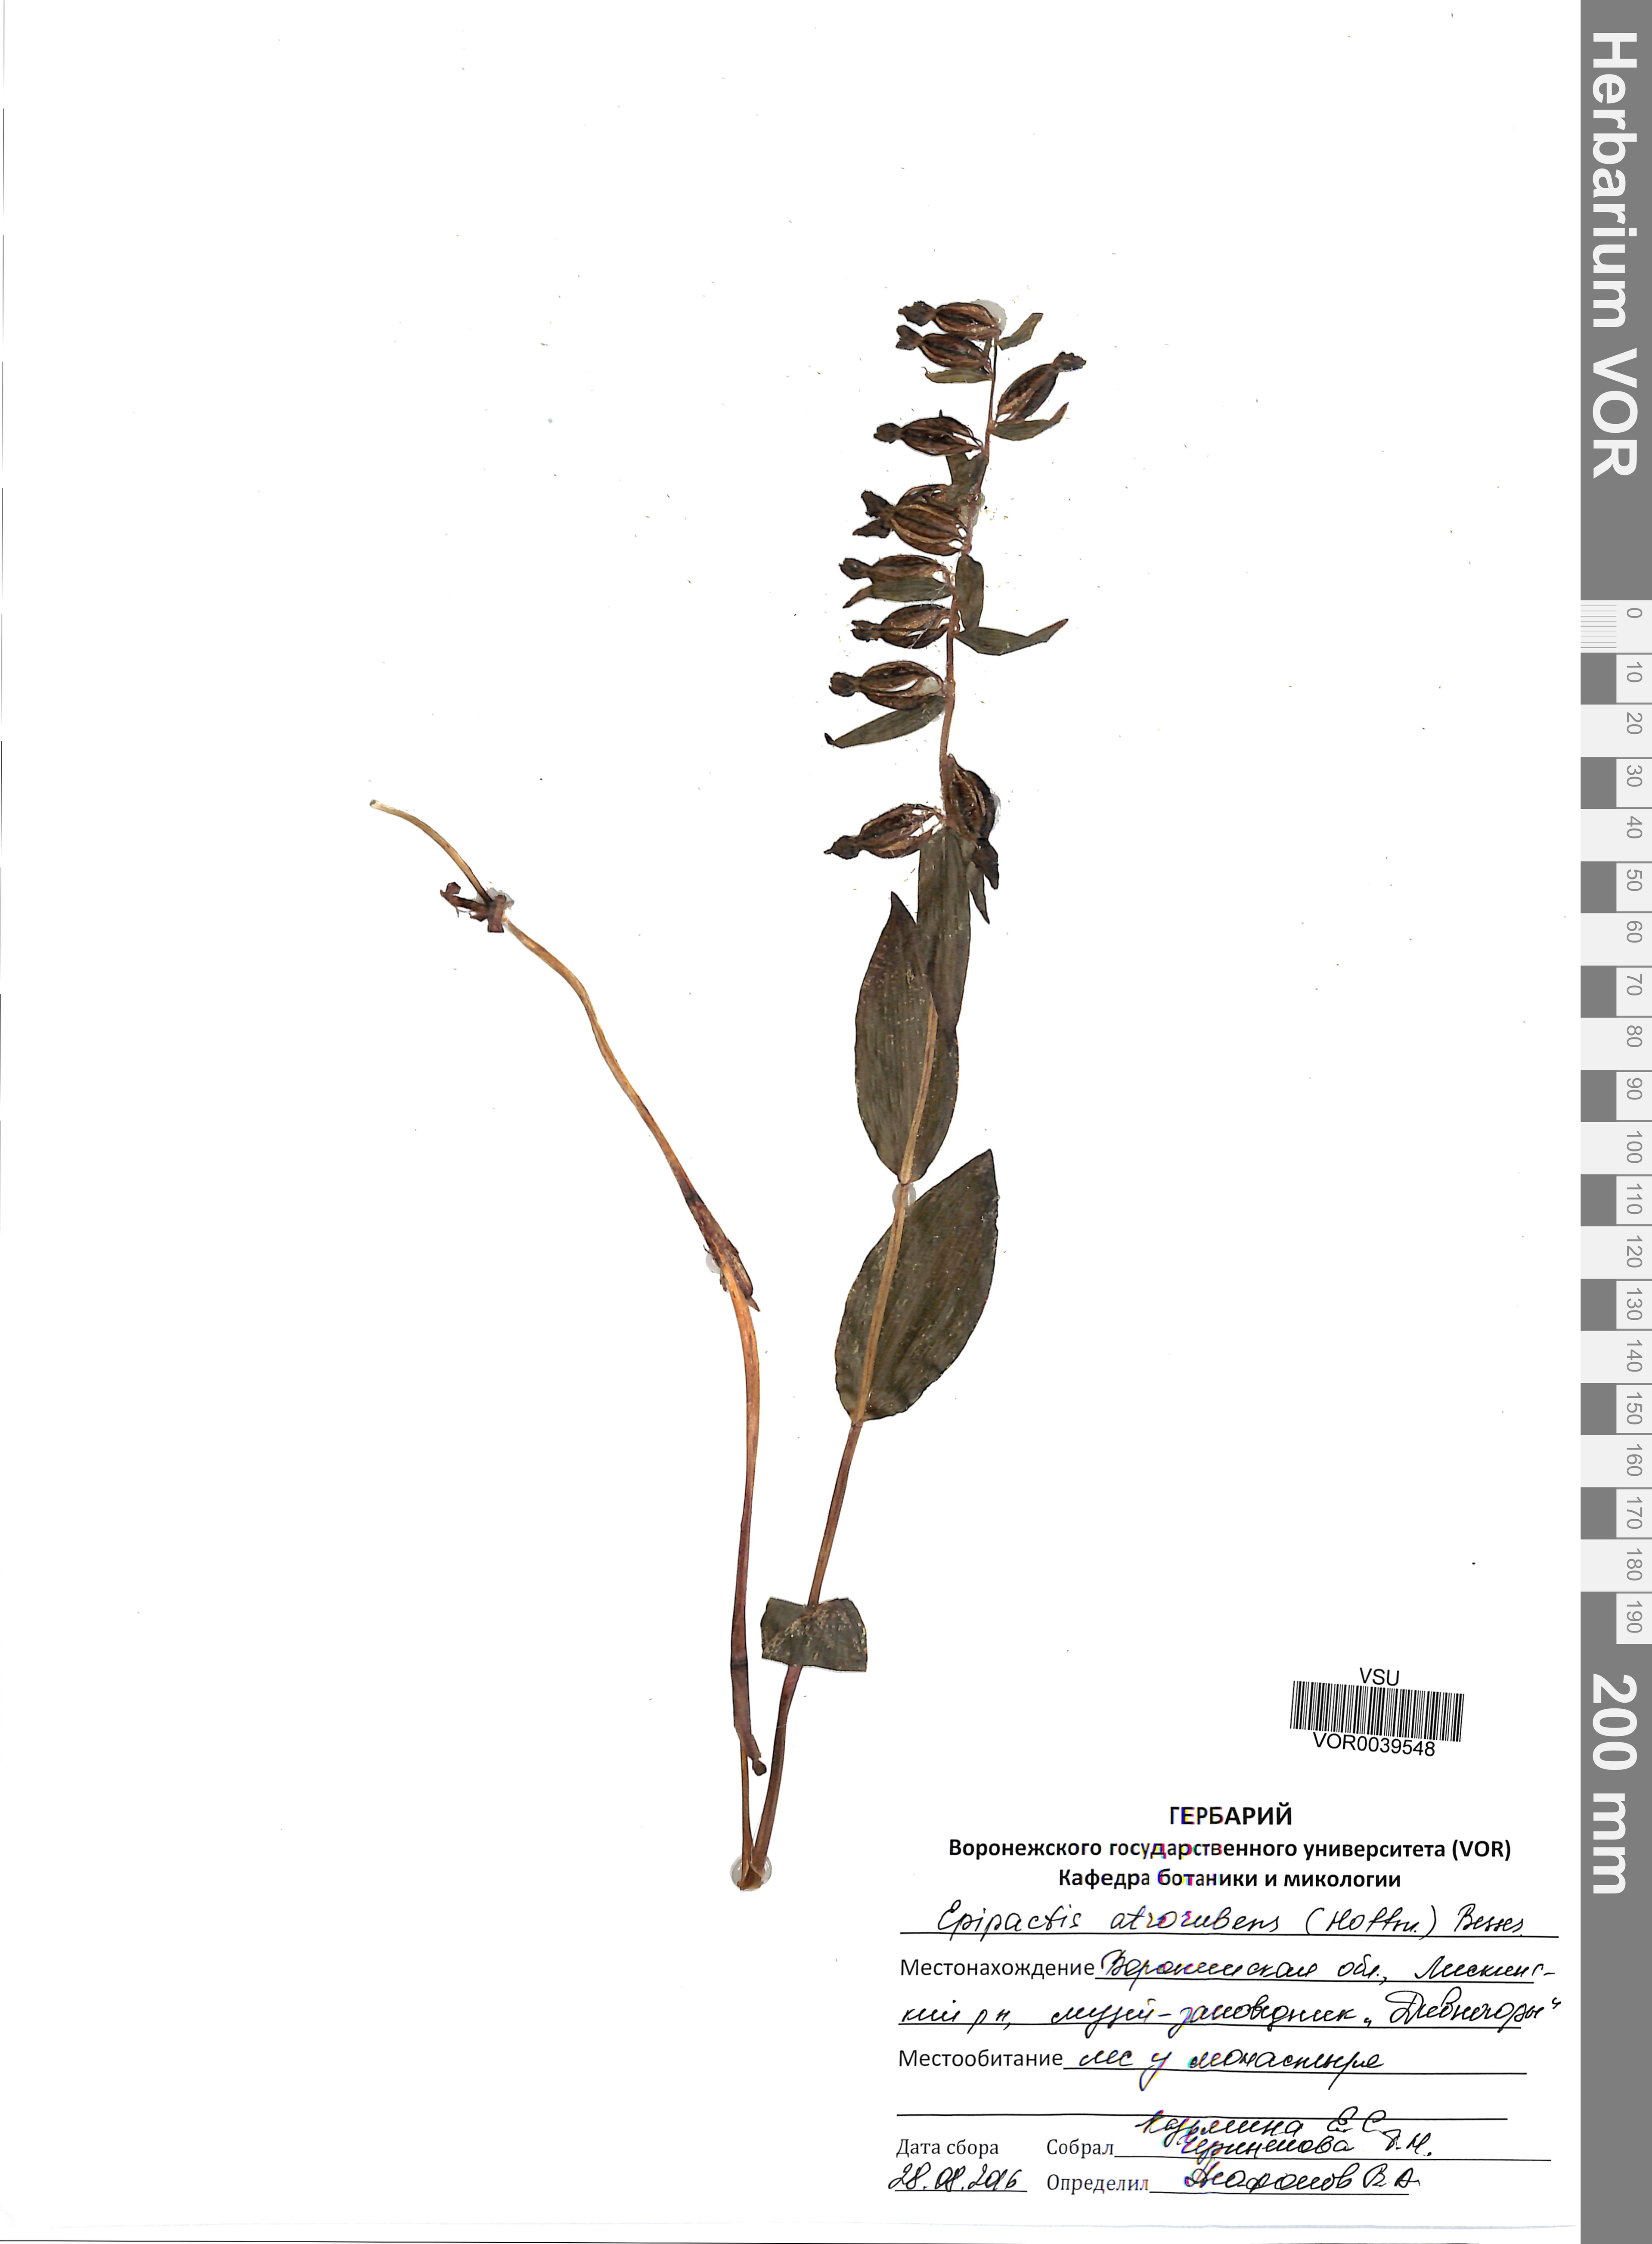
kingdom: Plantae
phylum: Tracheophyta
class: Liliopsida
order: Asparagales
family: Orchidaceae
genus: Epipactis
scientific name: Epipactis atrorubens
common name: Dark-red helleborine
